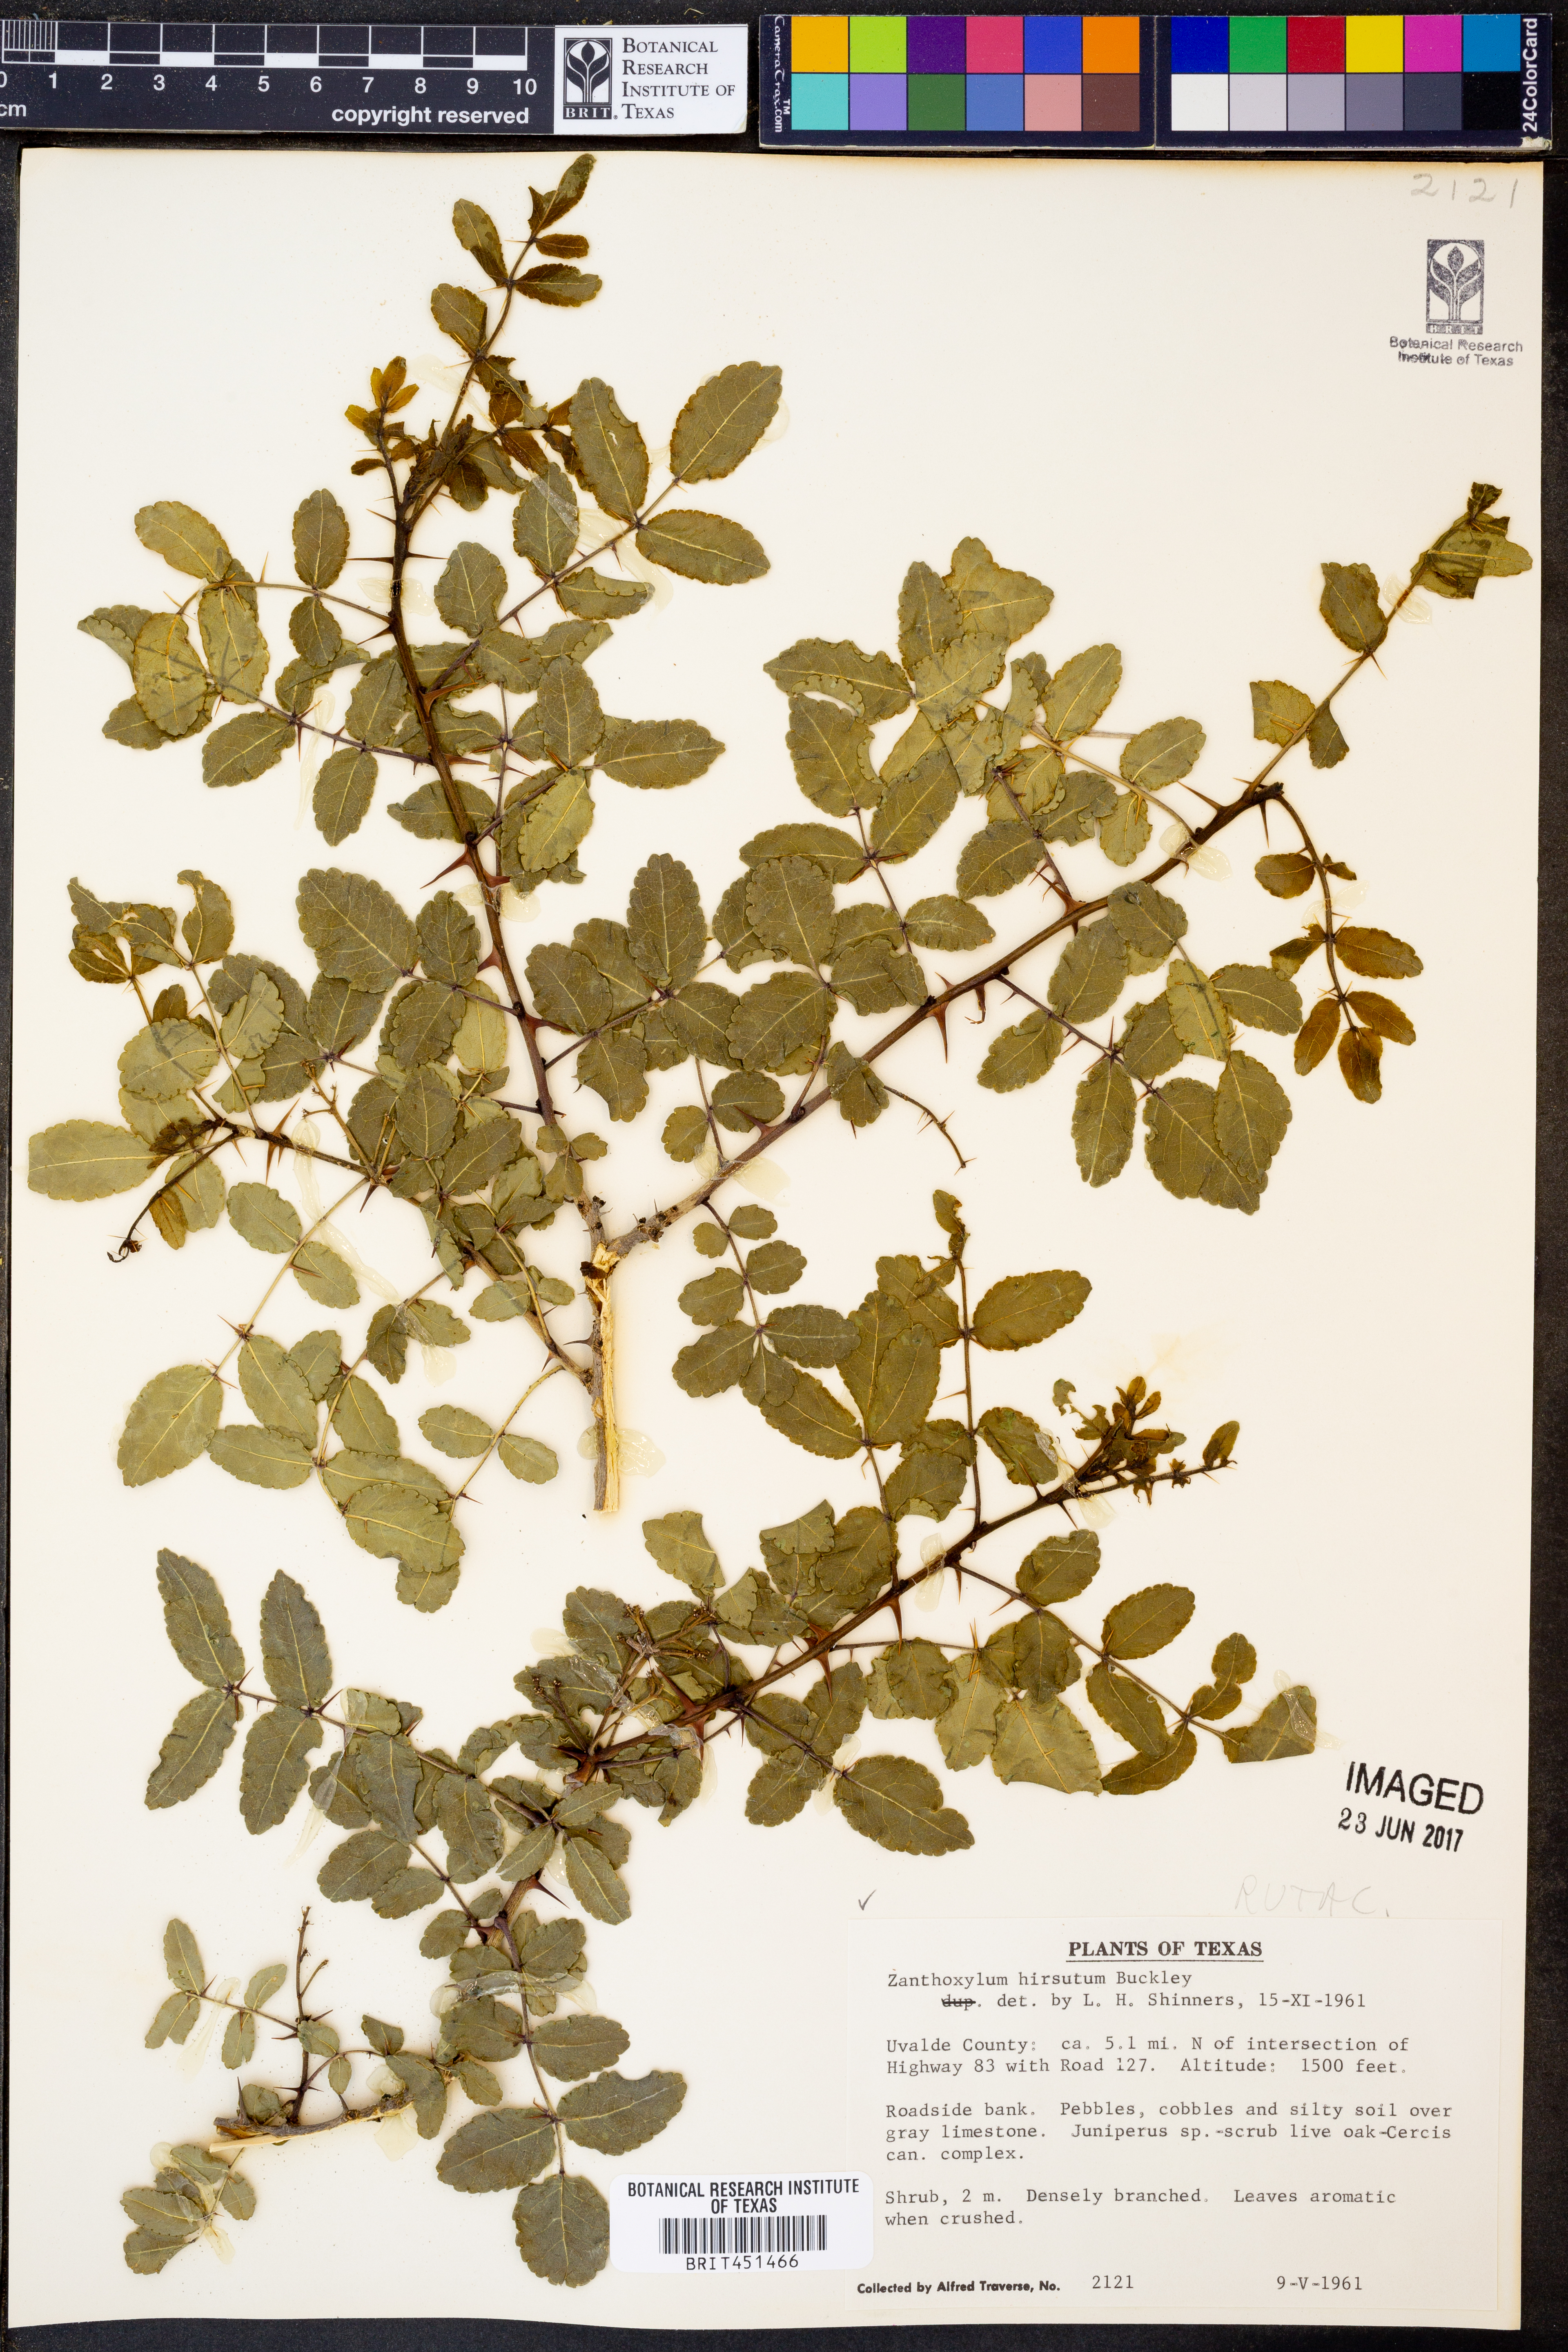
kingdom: Plantae
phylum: Tracheophyta
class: Magnoliopsida
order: Sapindales
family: Rutaceae
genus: Zanthoxylum
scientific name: Zanthoxylum clava-herculis
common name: Hercules'-club
